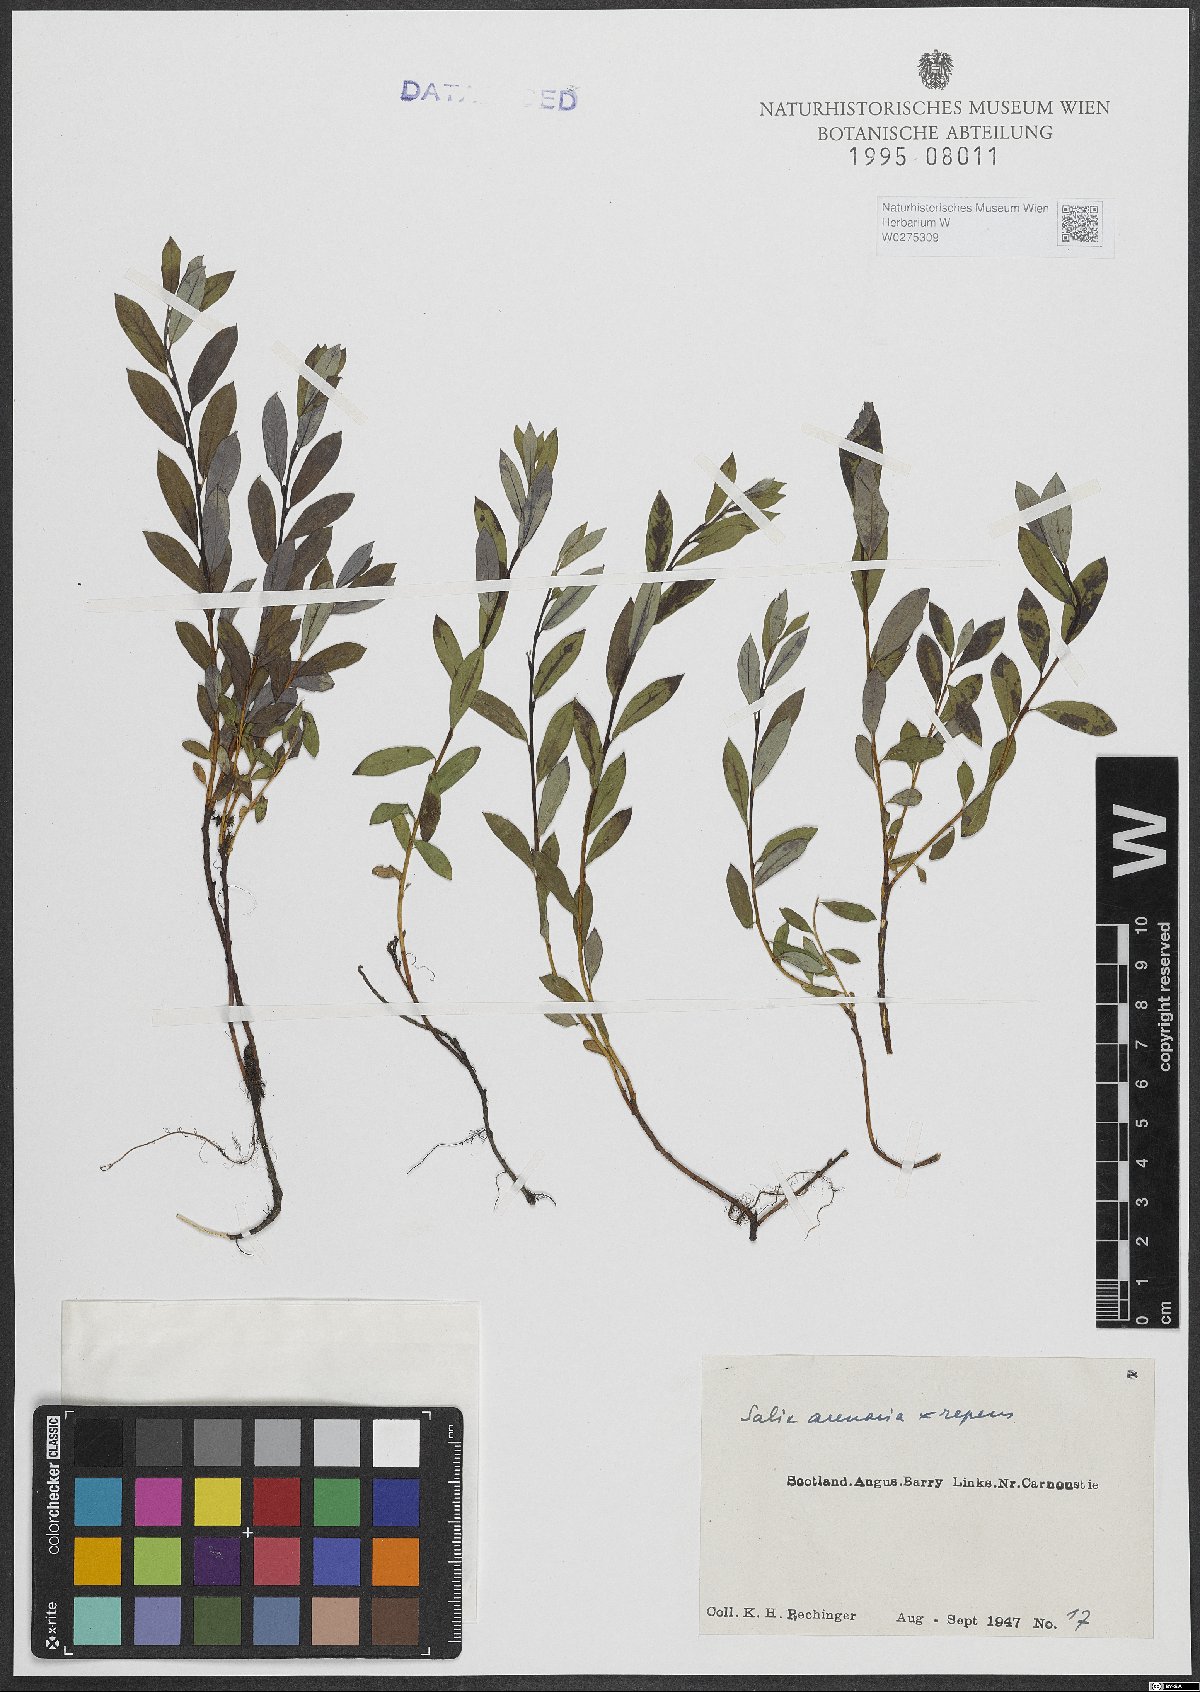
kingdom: Plantae
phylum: Tracheophyta
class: Magnoliopsida
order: Malpighiales
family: Salicaceae
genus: Salix
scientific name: Salix repens
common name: Creeping willow
